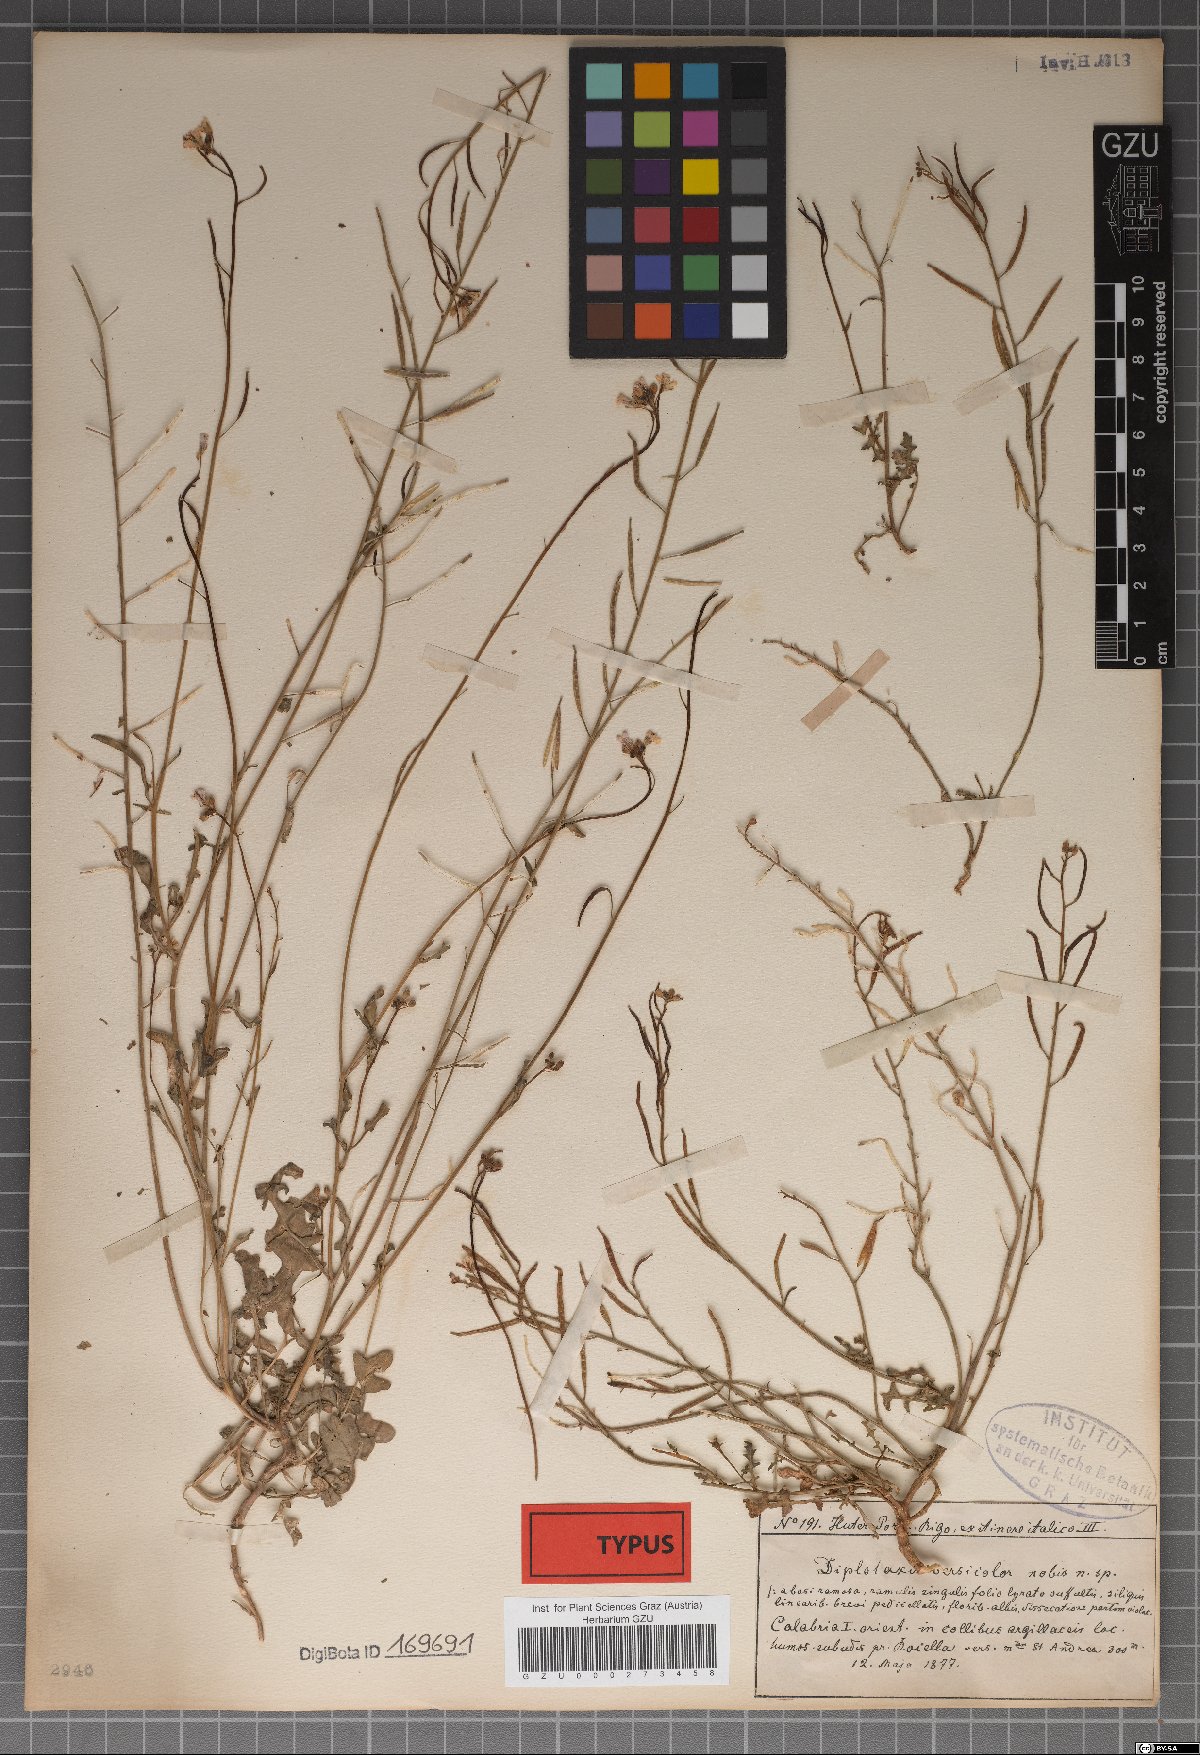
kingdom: Plantae
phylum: Tracheophyta
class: Magnoliopsida
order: Brassicales
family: Brassicaceae
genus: Diplotaxis
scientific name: Diplotaxis erucoides
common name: White rocket
